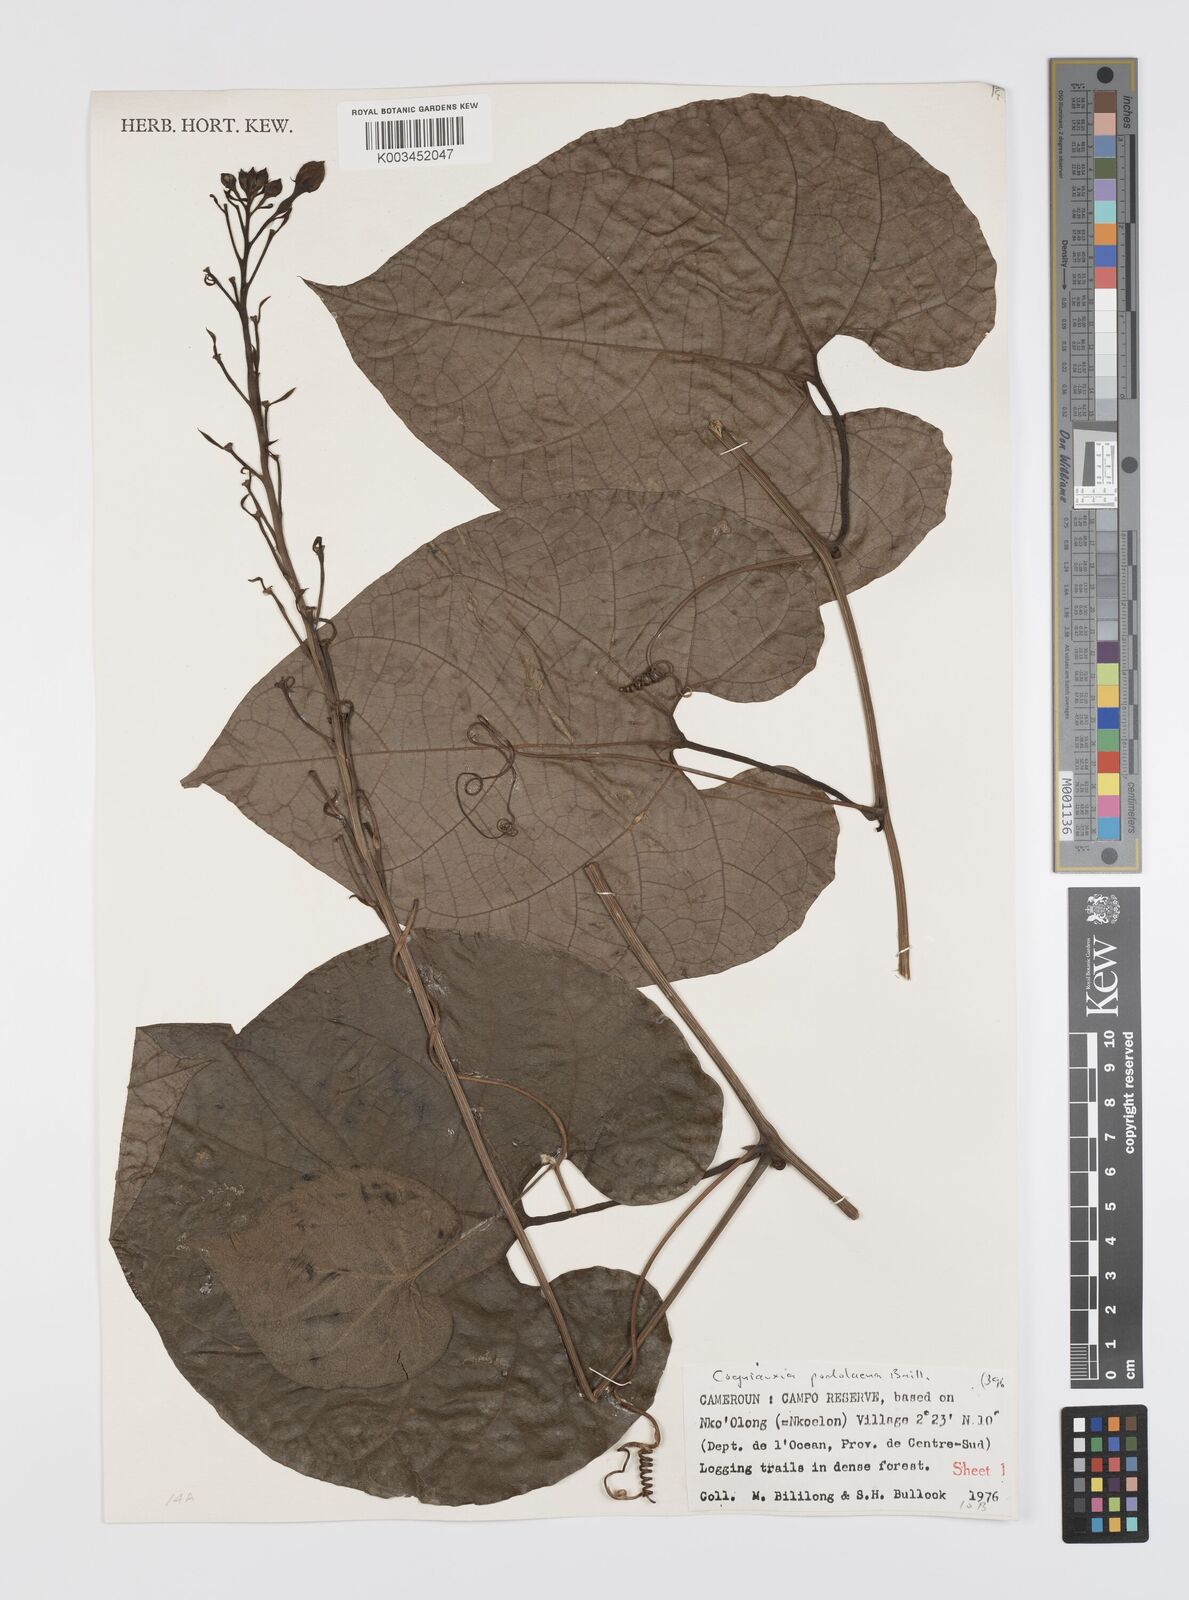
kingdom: Plantae
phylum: Tracheophyta
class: Magnoliopsida
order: Cucurbitales
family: Cucurbitaceae
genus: Cogniauxia
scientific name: Cogniauxia podolaena
